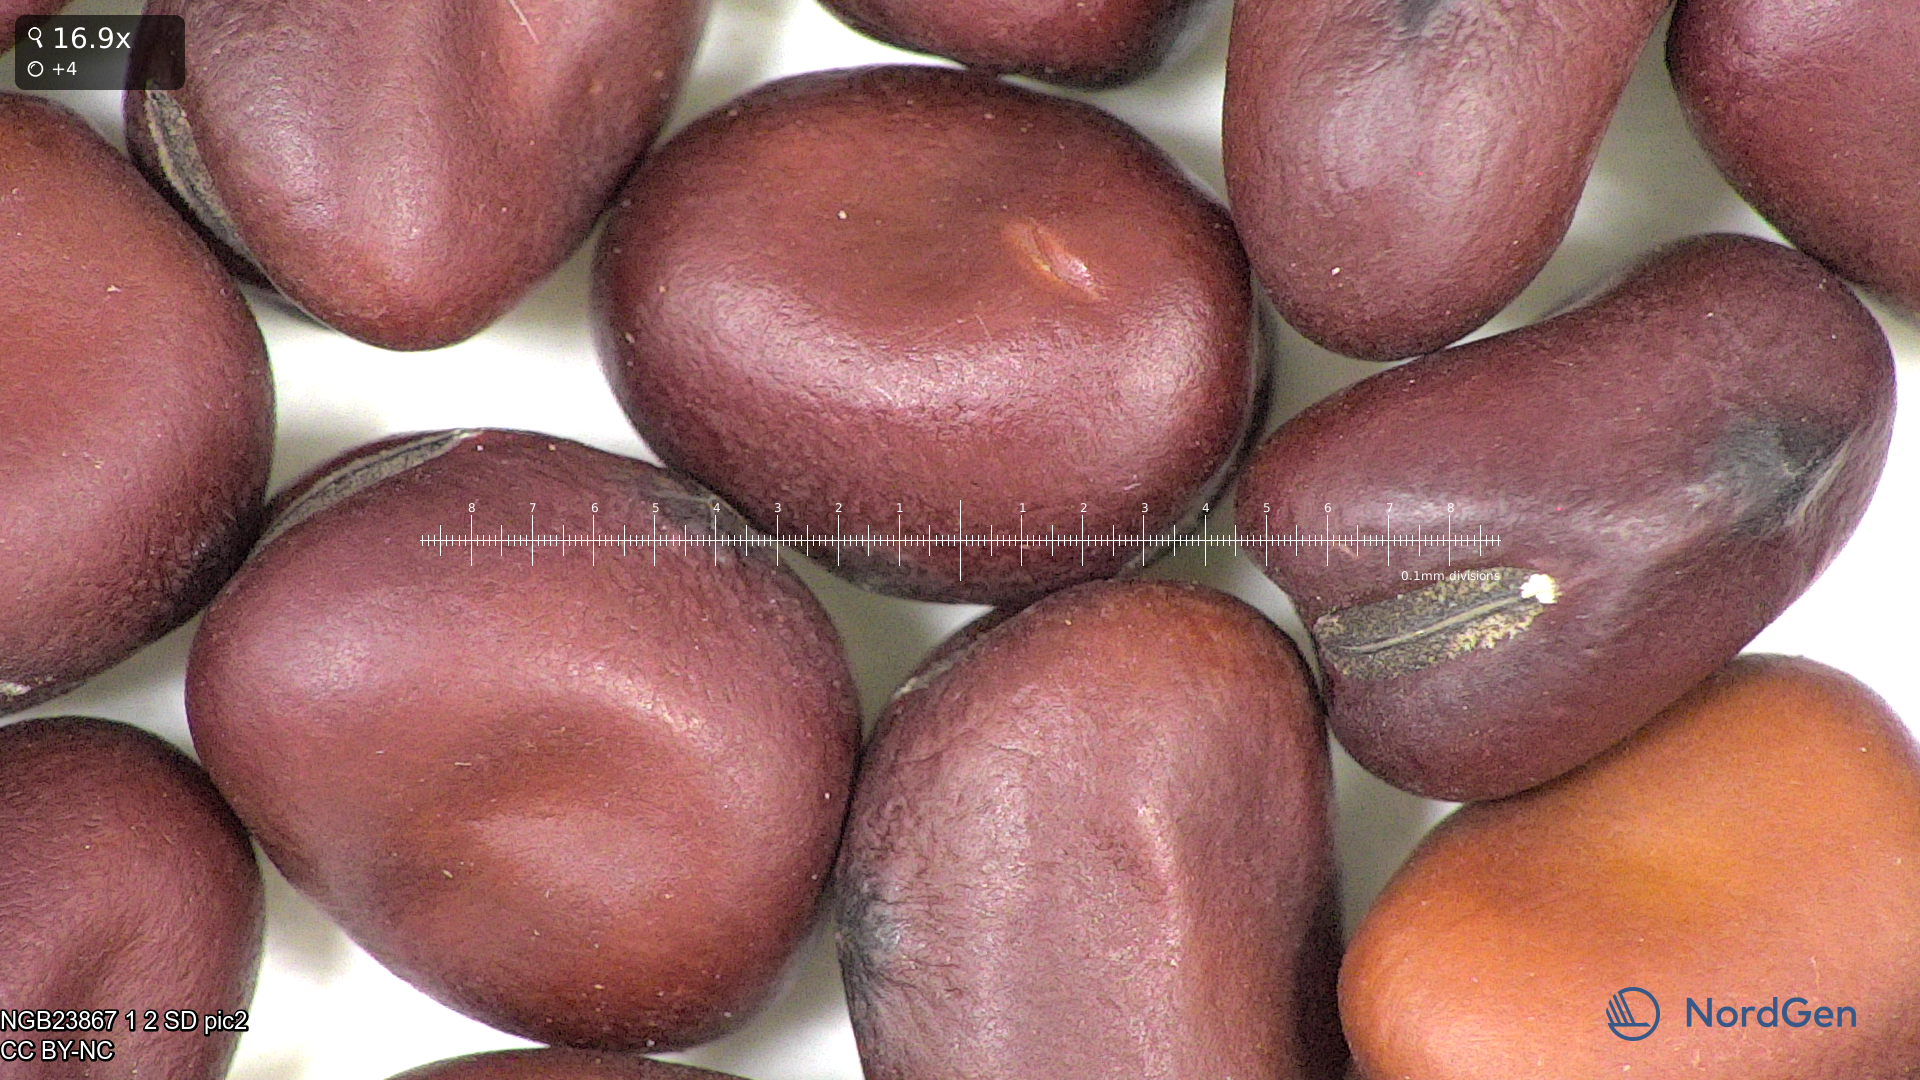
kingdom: Plantae
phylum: Tracheophyta
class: Magnoliopsida
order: Fabales
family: Fabaceae
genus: Vicia
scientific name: Vicia faba
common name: Broad bean
